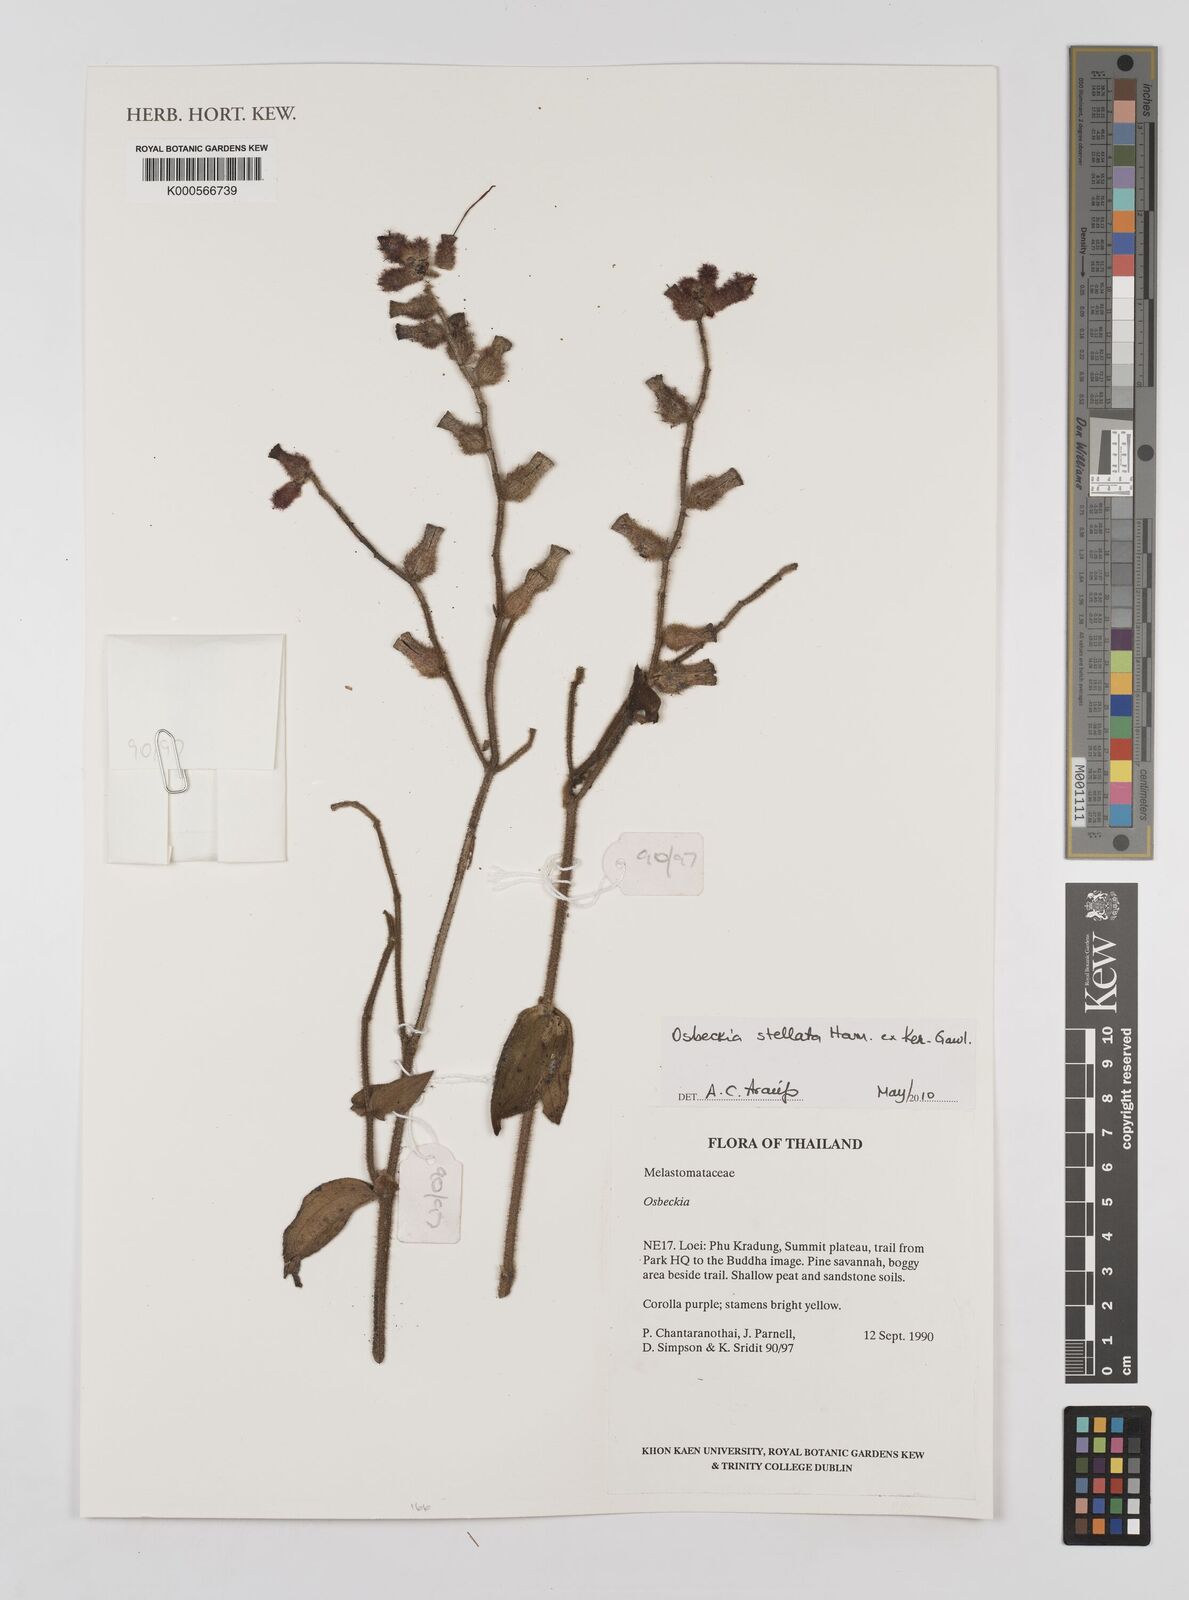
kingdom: Plantae
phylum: Tracheophyta
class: Magnoliopsida
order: Myrtales
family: Melastomataceae
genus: Osbeckia
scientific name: Osbeckia
